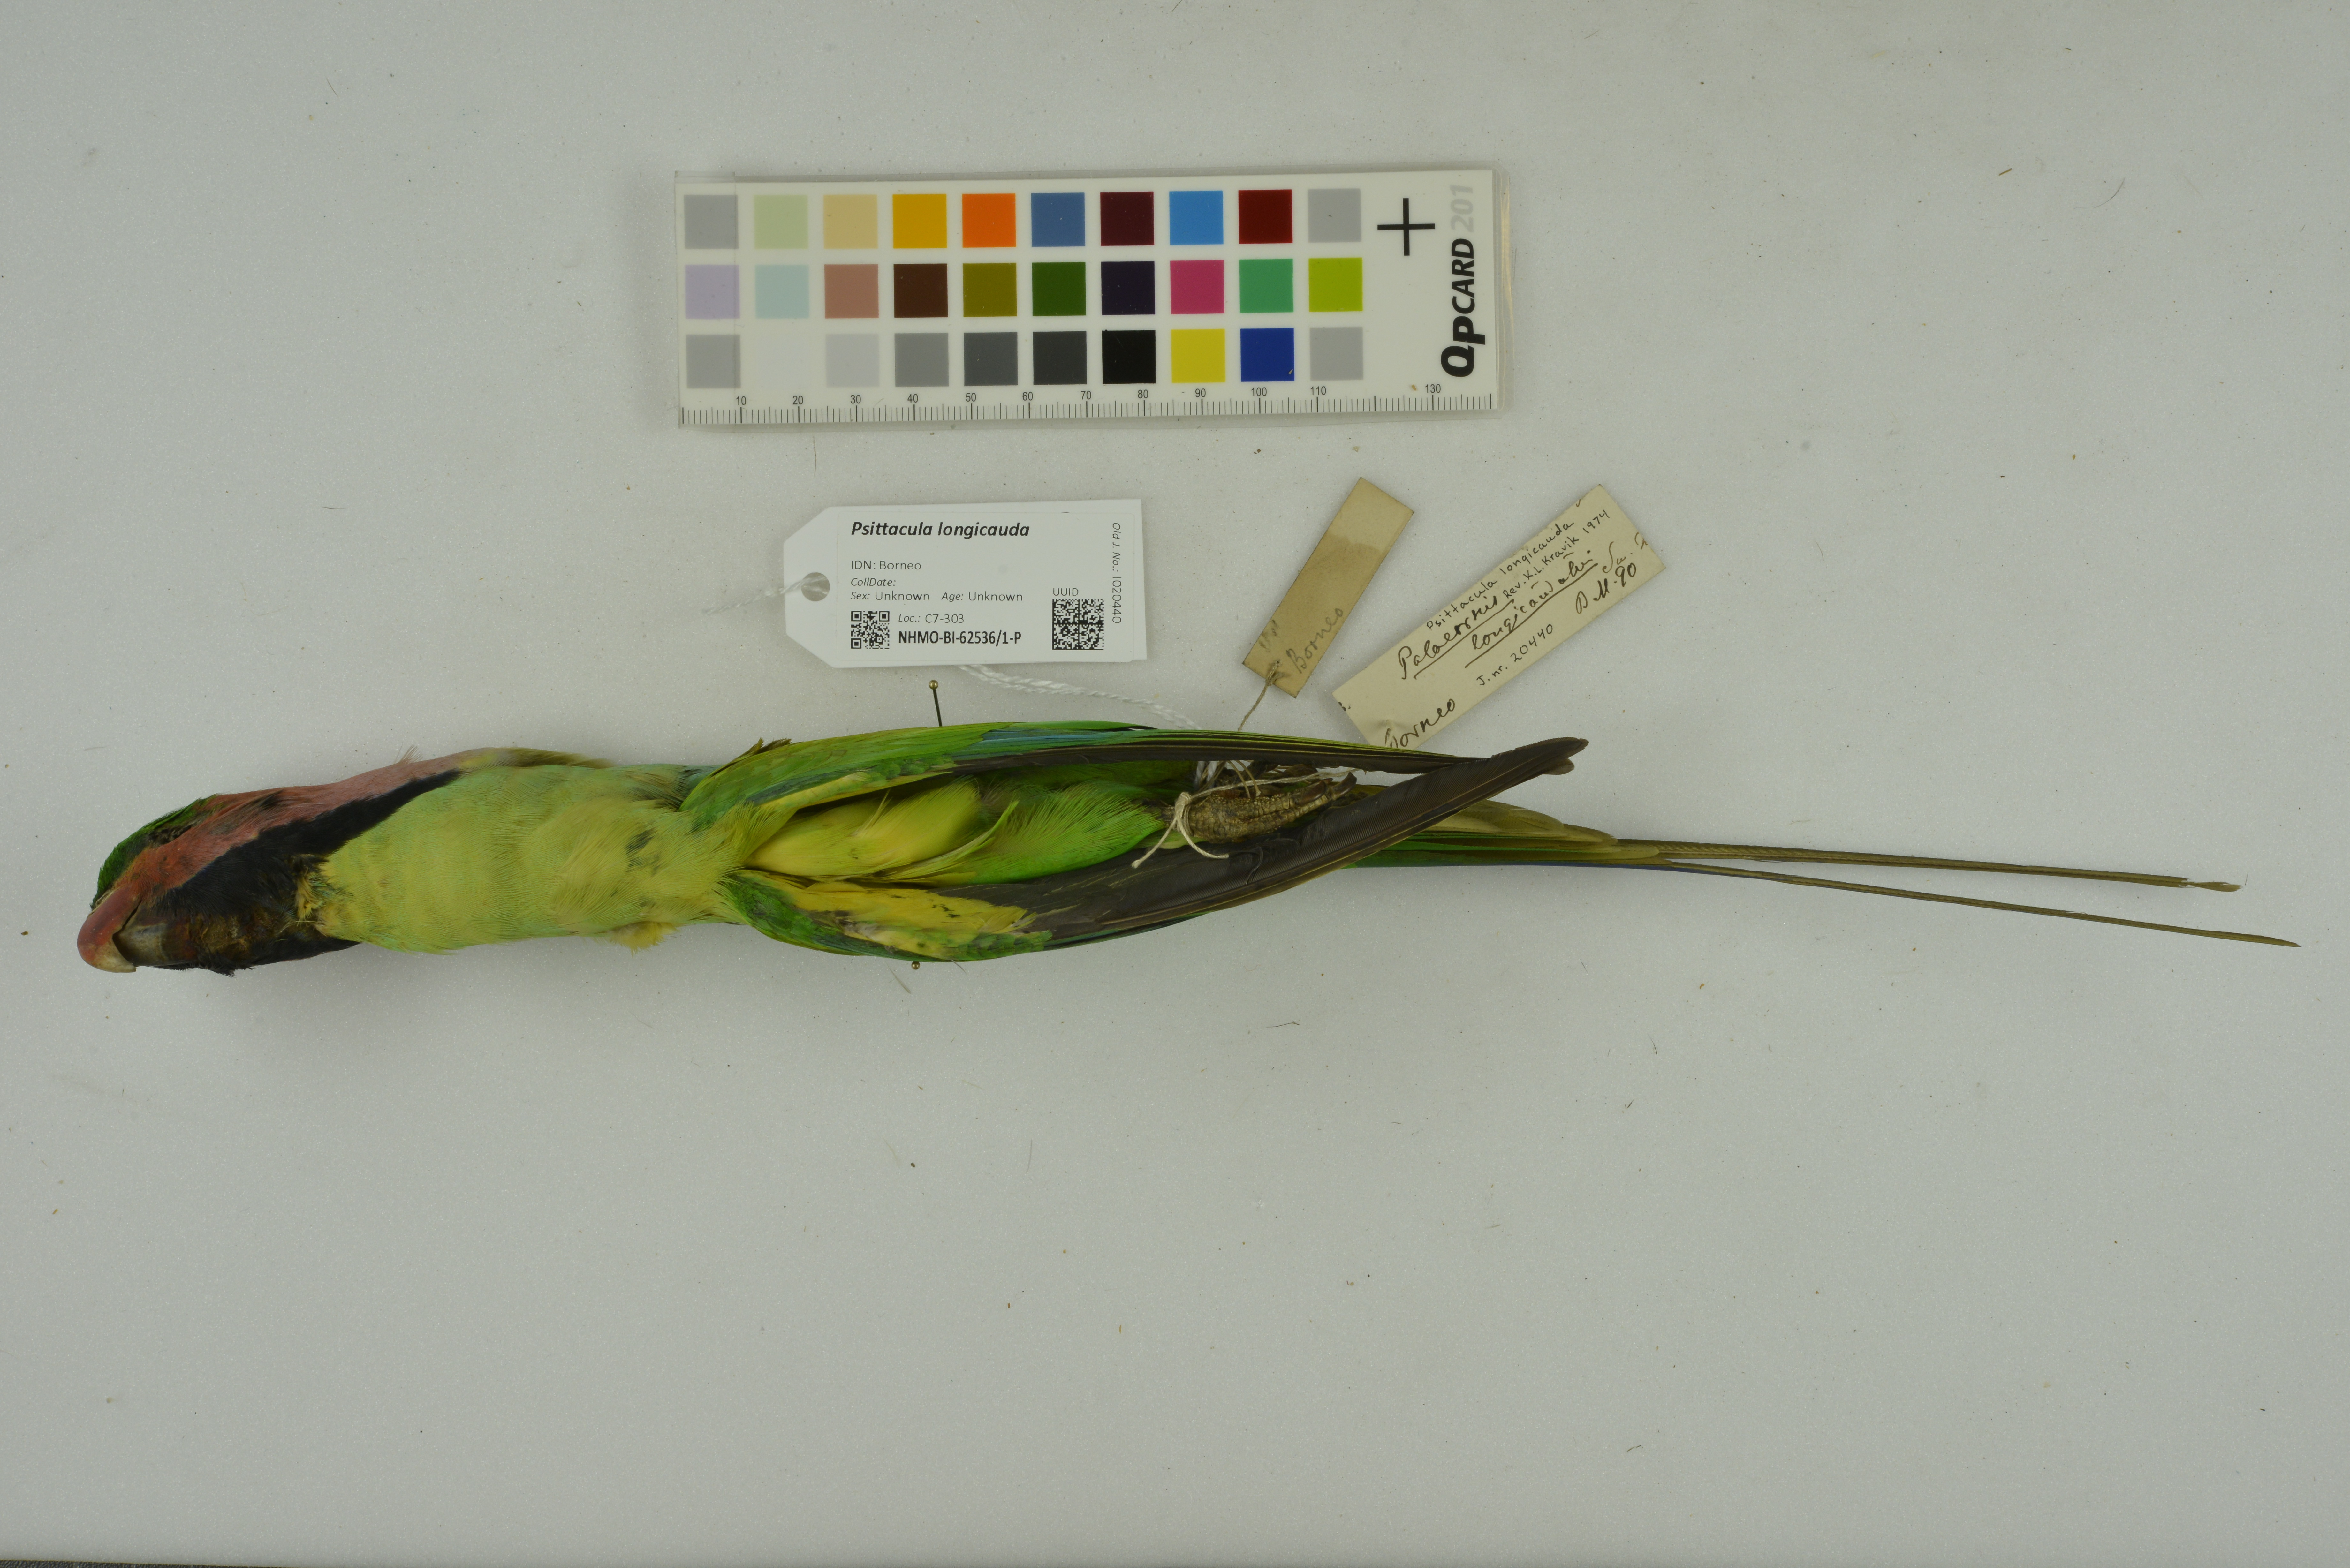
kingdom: Animalia
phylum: Chordata
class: Aves
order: Psittaciformes
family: Psittacidae
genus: Psittacula
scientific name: Psittacula longicauda
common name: Long-tailed parakeet
